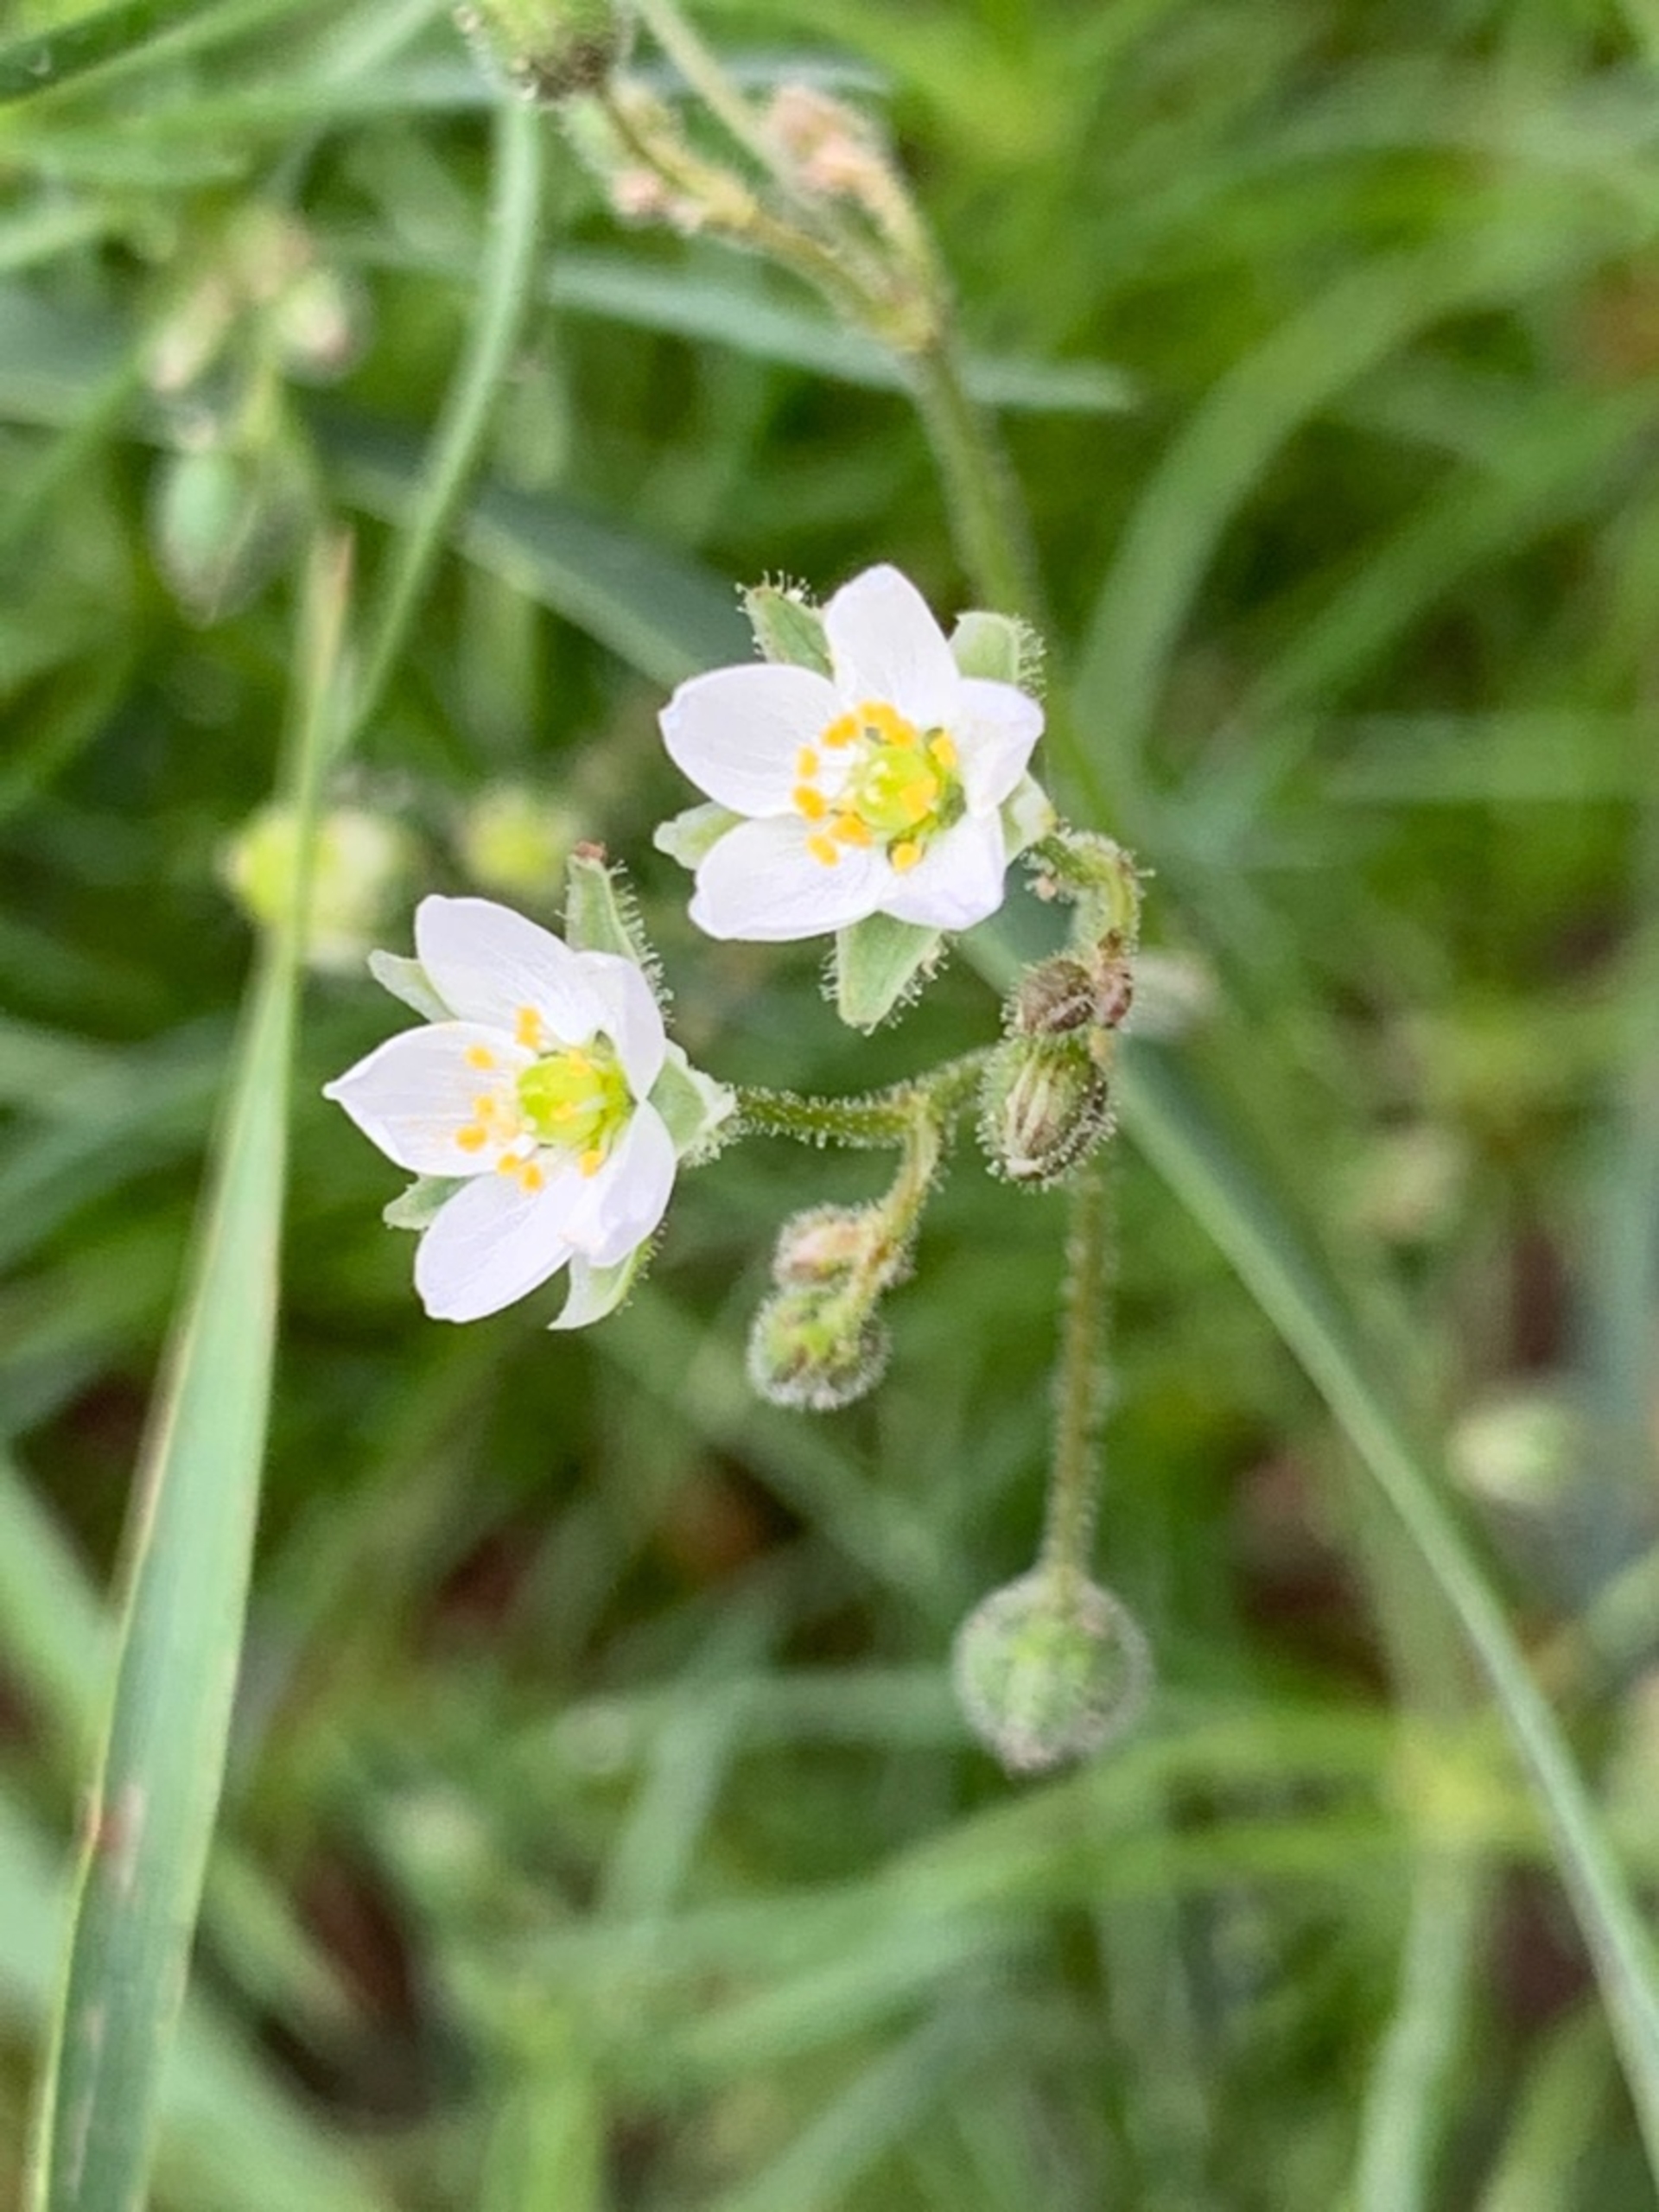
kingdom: Plantae
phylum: Tracheophyta
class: Magnoliopsida
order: Caryophyllales
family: Caryophyllaceae
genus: Spergula
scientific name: Spergula arvensis
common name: Almindelig spergel
